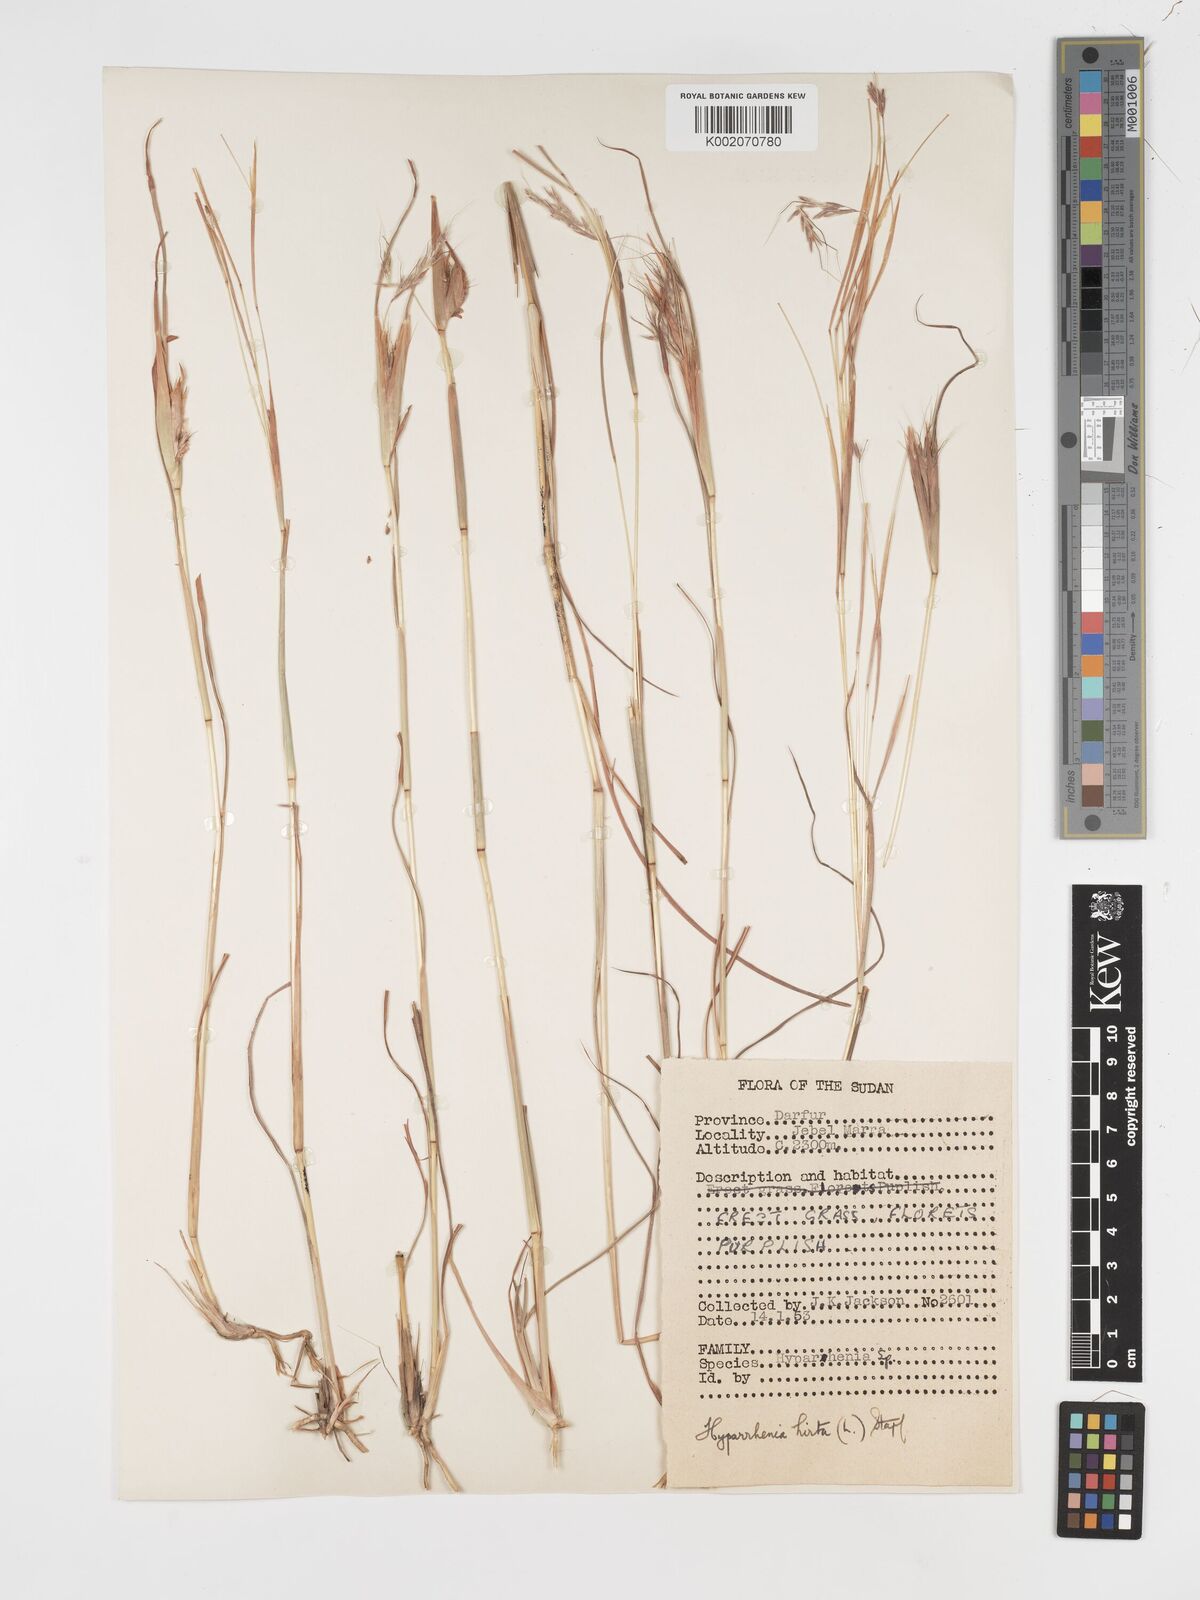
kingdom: Plantae
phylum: Tracheophyta
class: Liliopsida
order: Poales
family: Poaceae
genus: Hyparrhenia
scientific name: Hyparrhenia hirta
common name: Thatching grass
